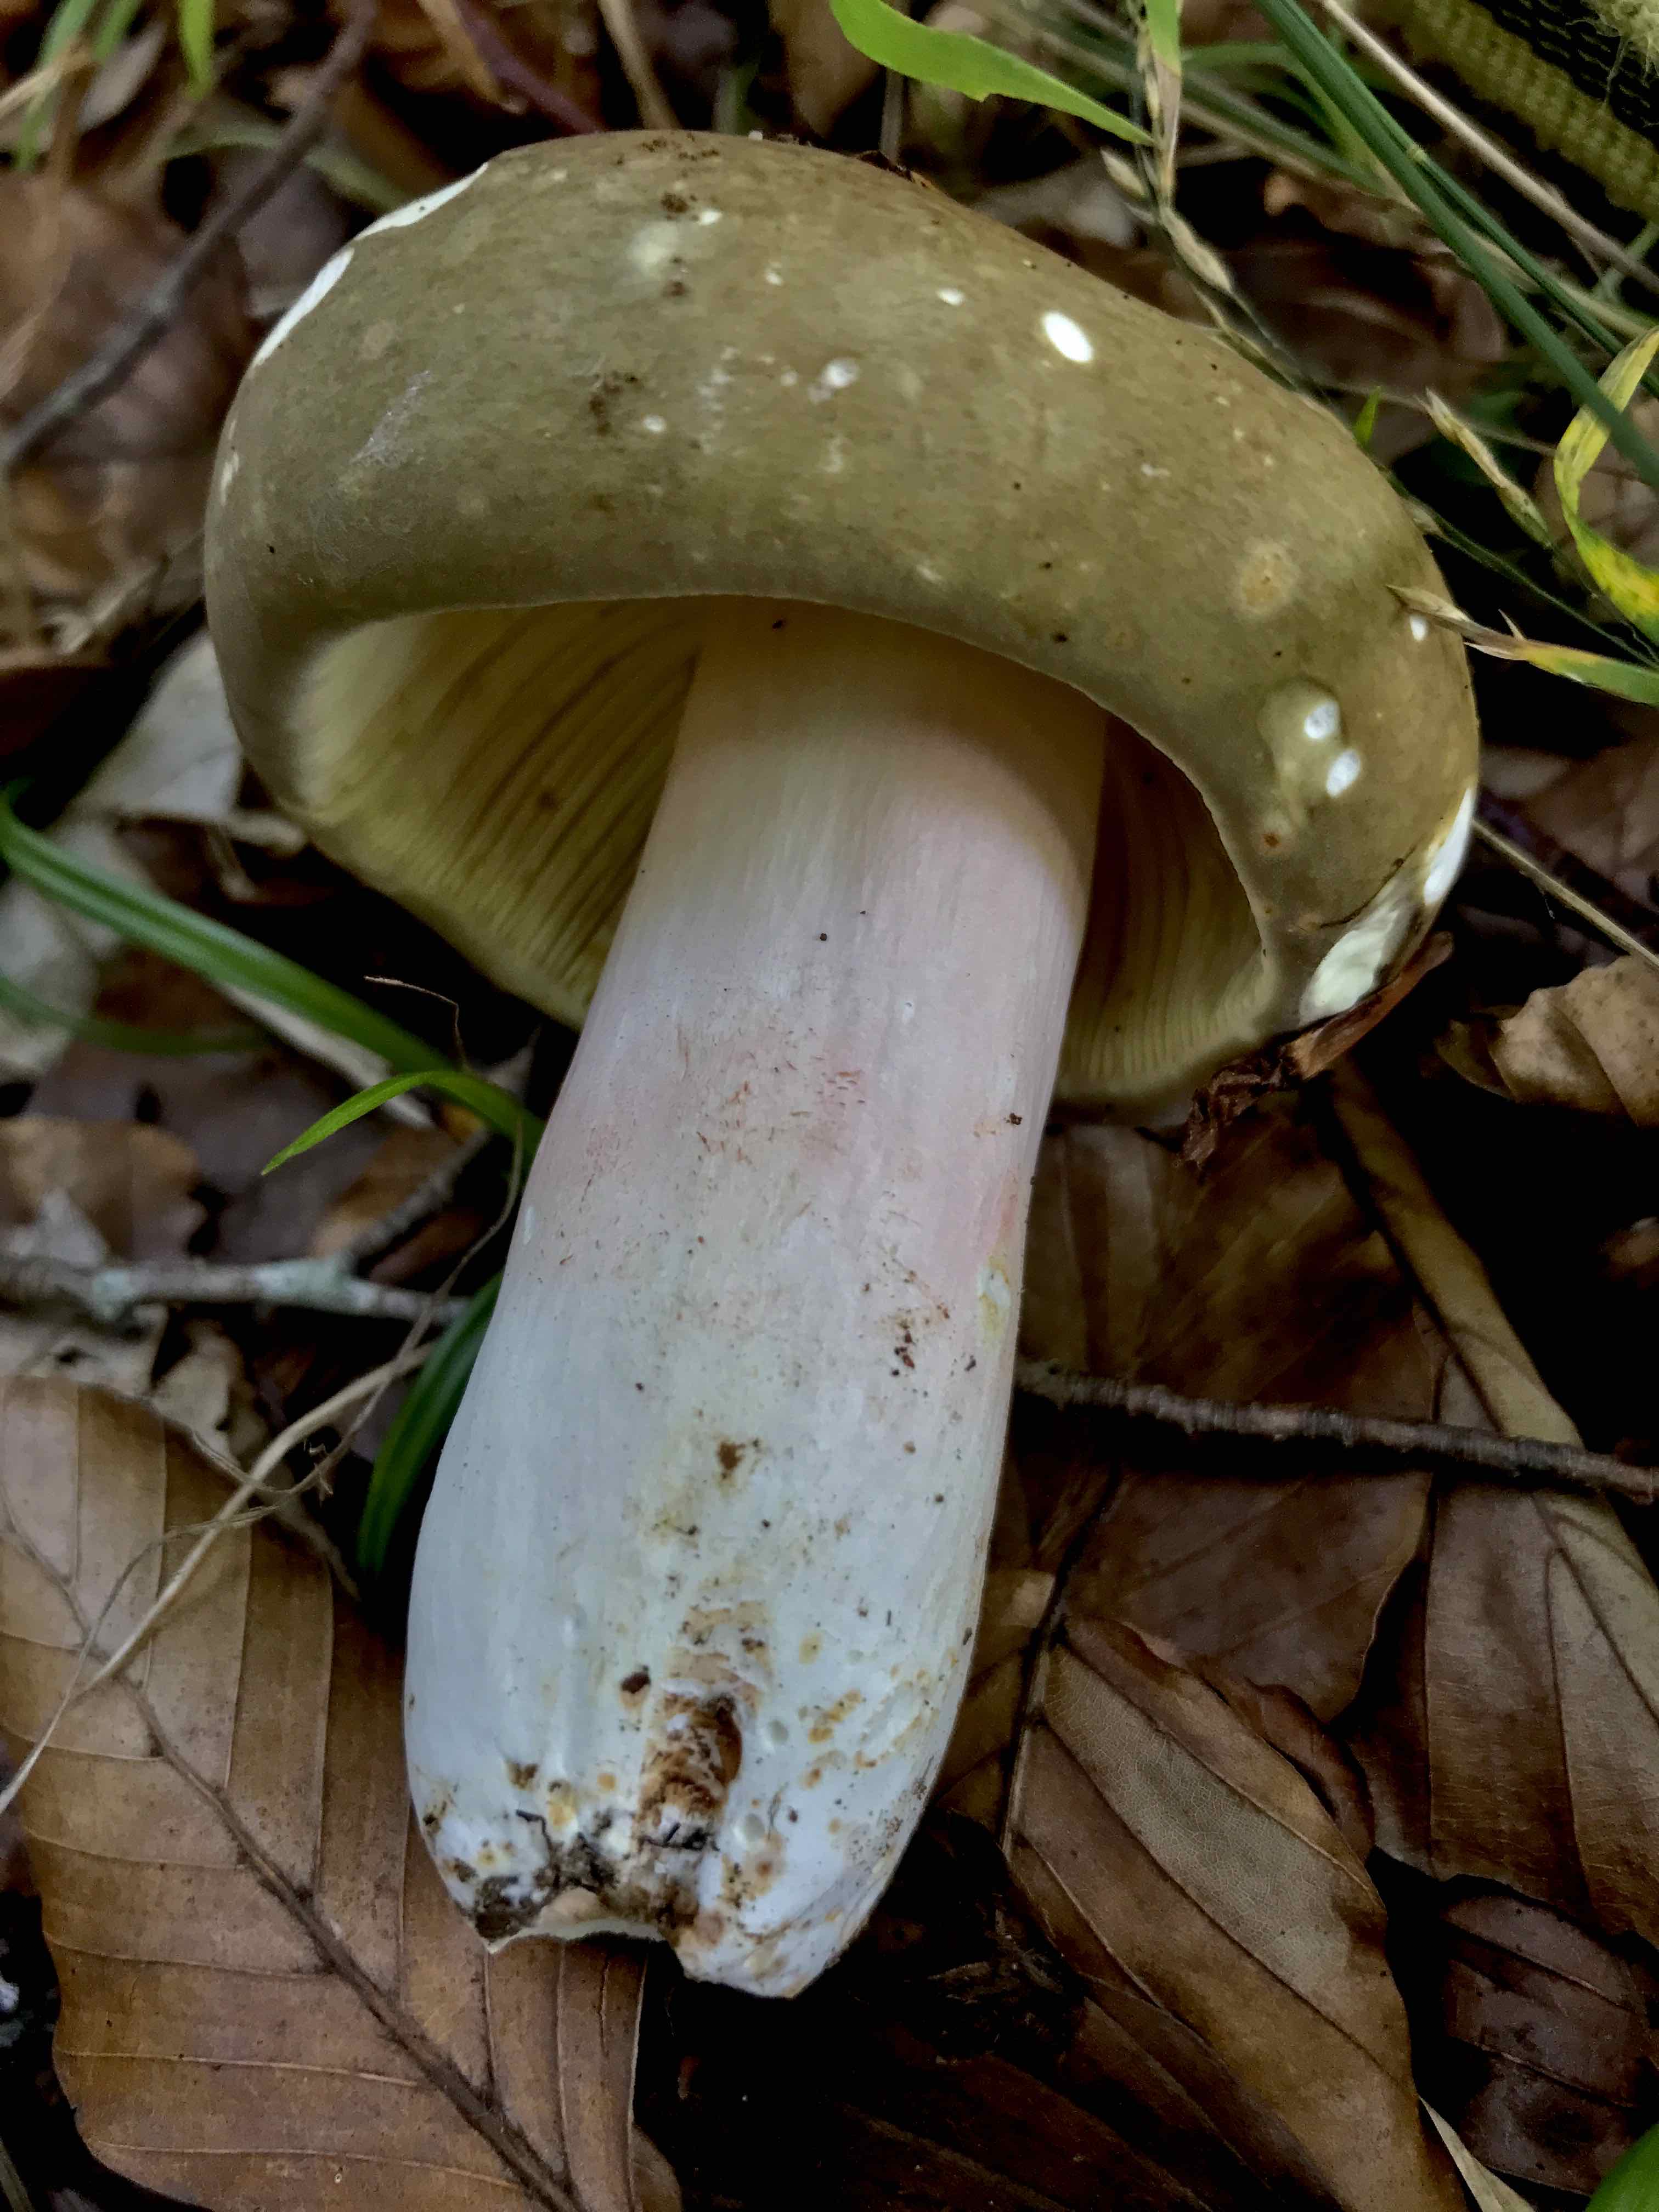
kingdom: Fungi
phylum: Basidiomycota
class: Agaricomycetes
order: Russulales
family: Russulaceae
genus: Russula
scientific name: Russula olivacea
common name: stor skørhat
